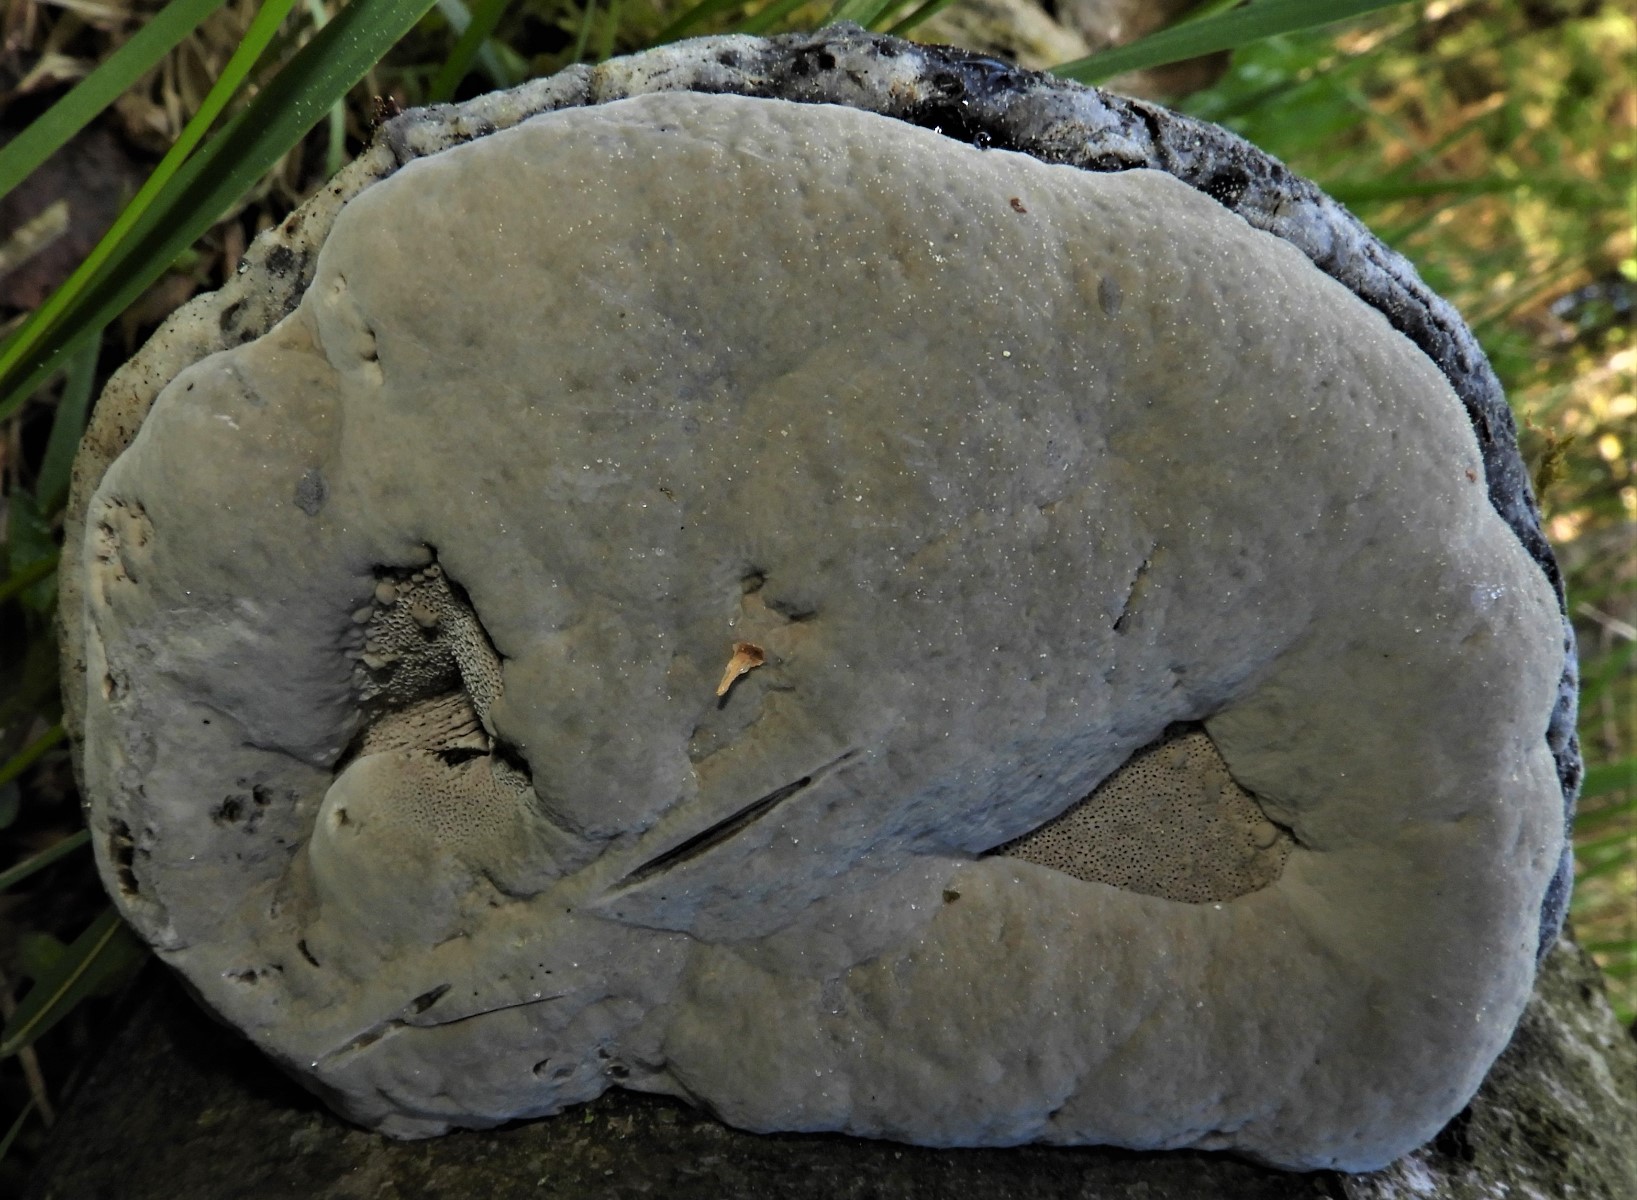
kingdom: Fungi
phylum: Basidiomycota
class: Agaricomycetes
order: Polyporales
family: Polyporaceae
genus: Fomes
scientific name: Fomes fomentarius
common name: tøndersvamp
